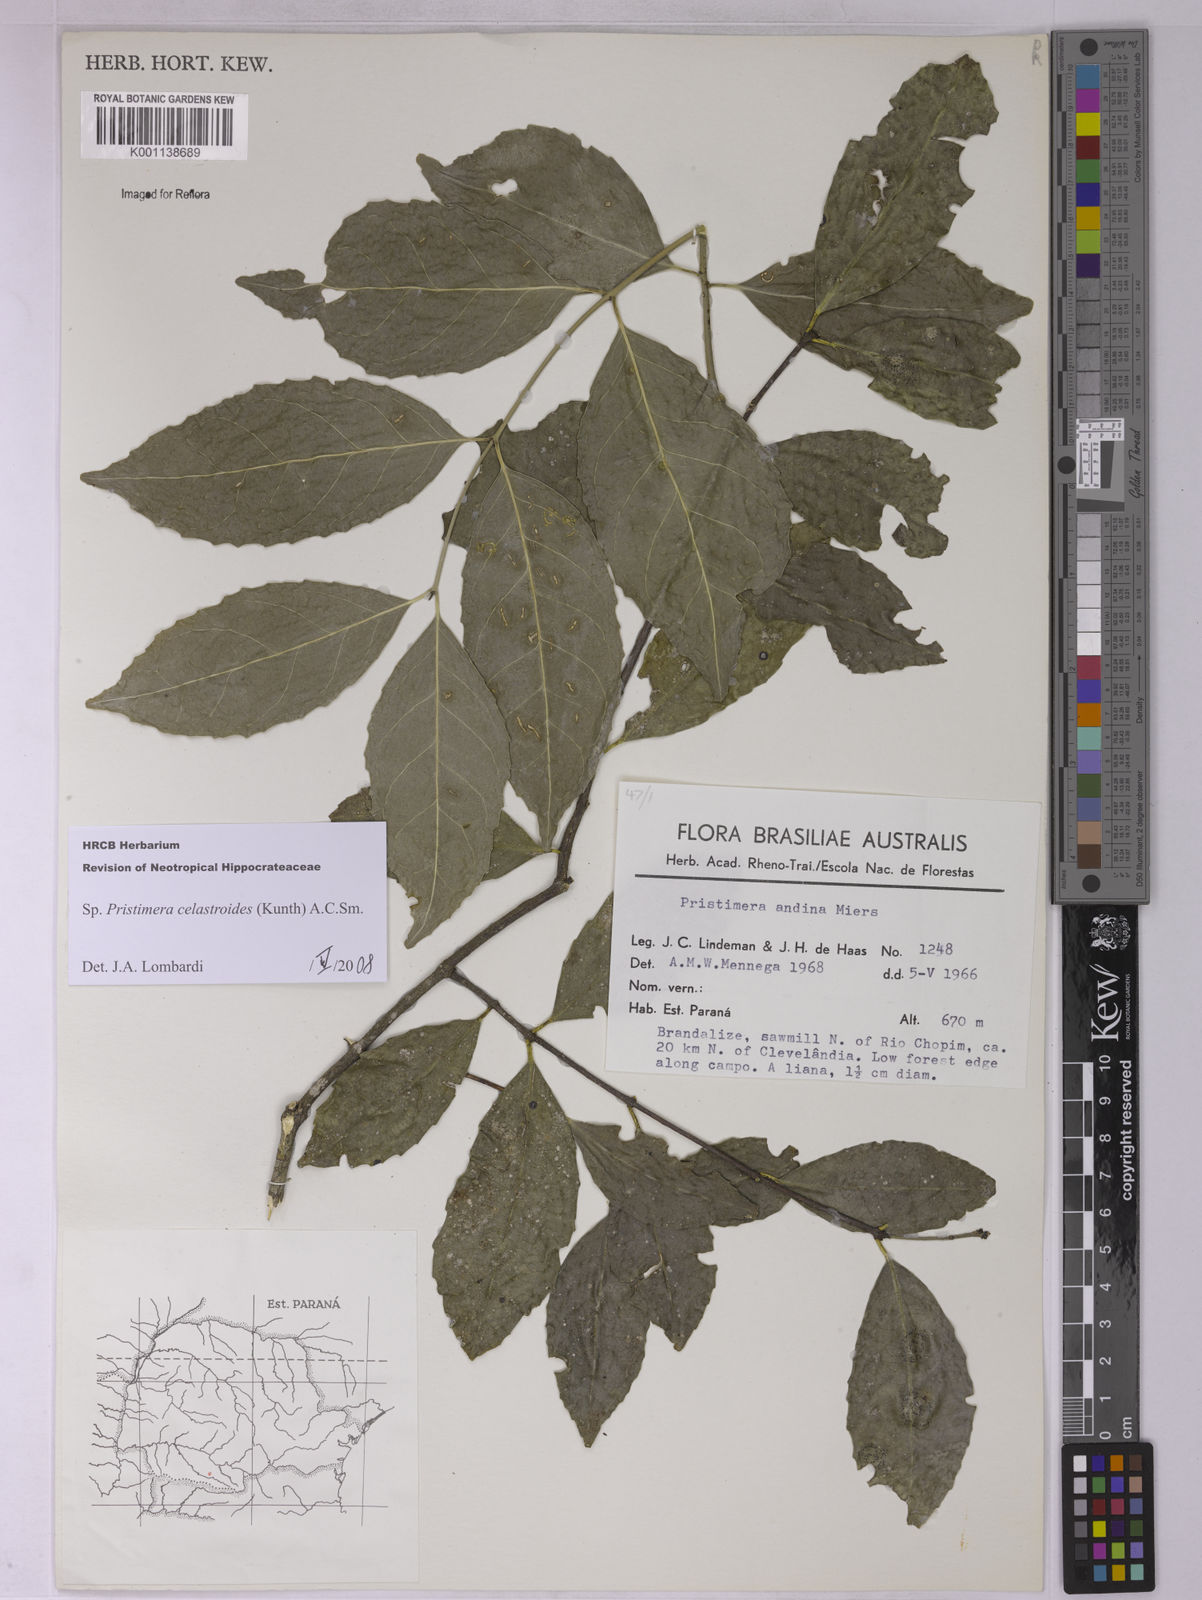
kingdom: Plantae
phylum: Tracheophyta
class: Magnoliopsida
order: Celastrales
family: Celastraceae
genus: Pristimera
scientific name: Pristimera celastroides
